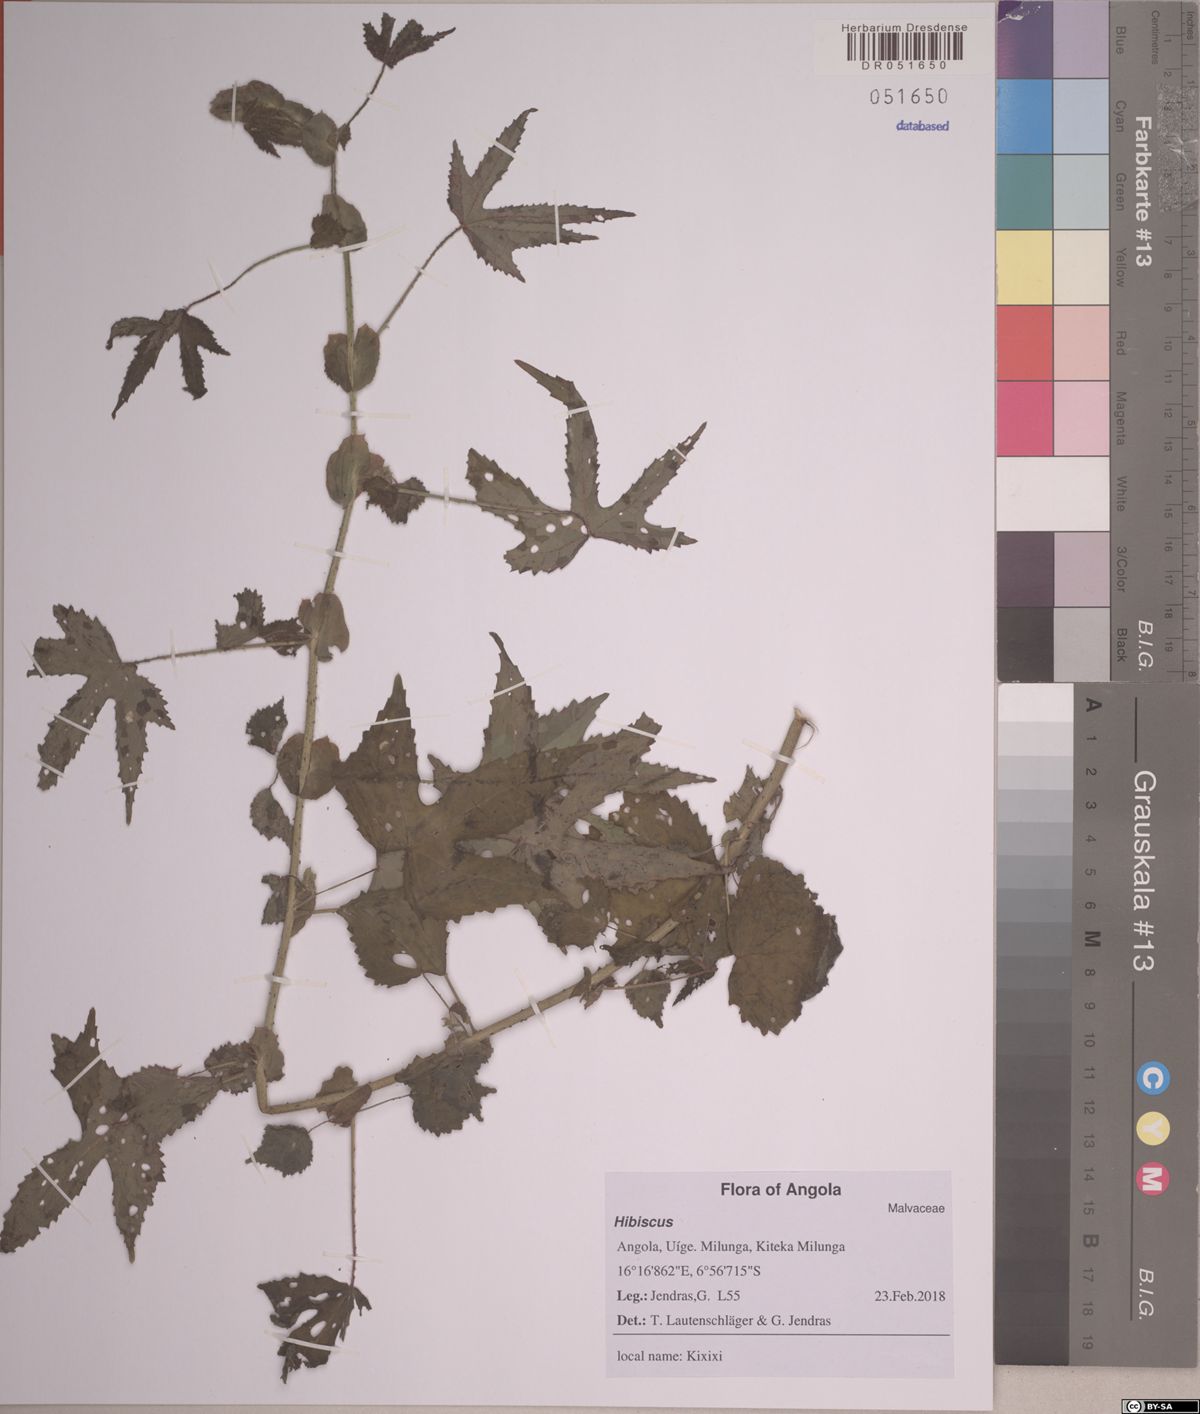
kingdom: Plantae
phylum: Tracheophyta
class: Magnoliopsida
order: Malvales
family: Malvaceae
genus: Hibiscus
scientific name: Hibiscus
